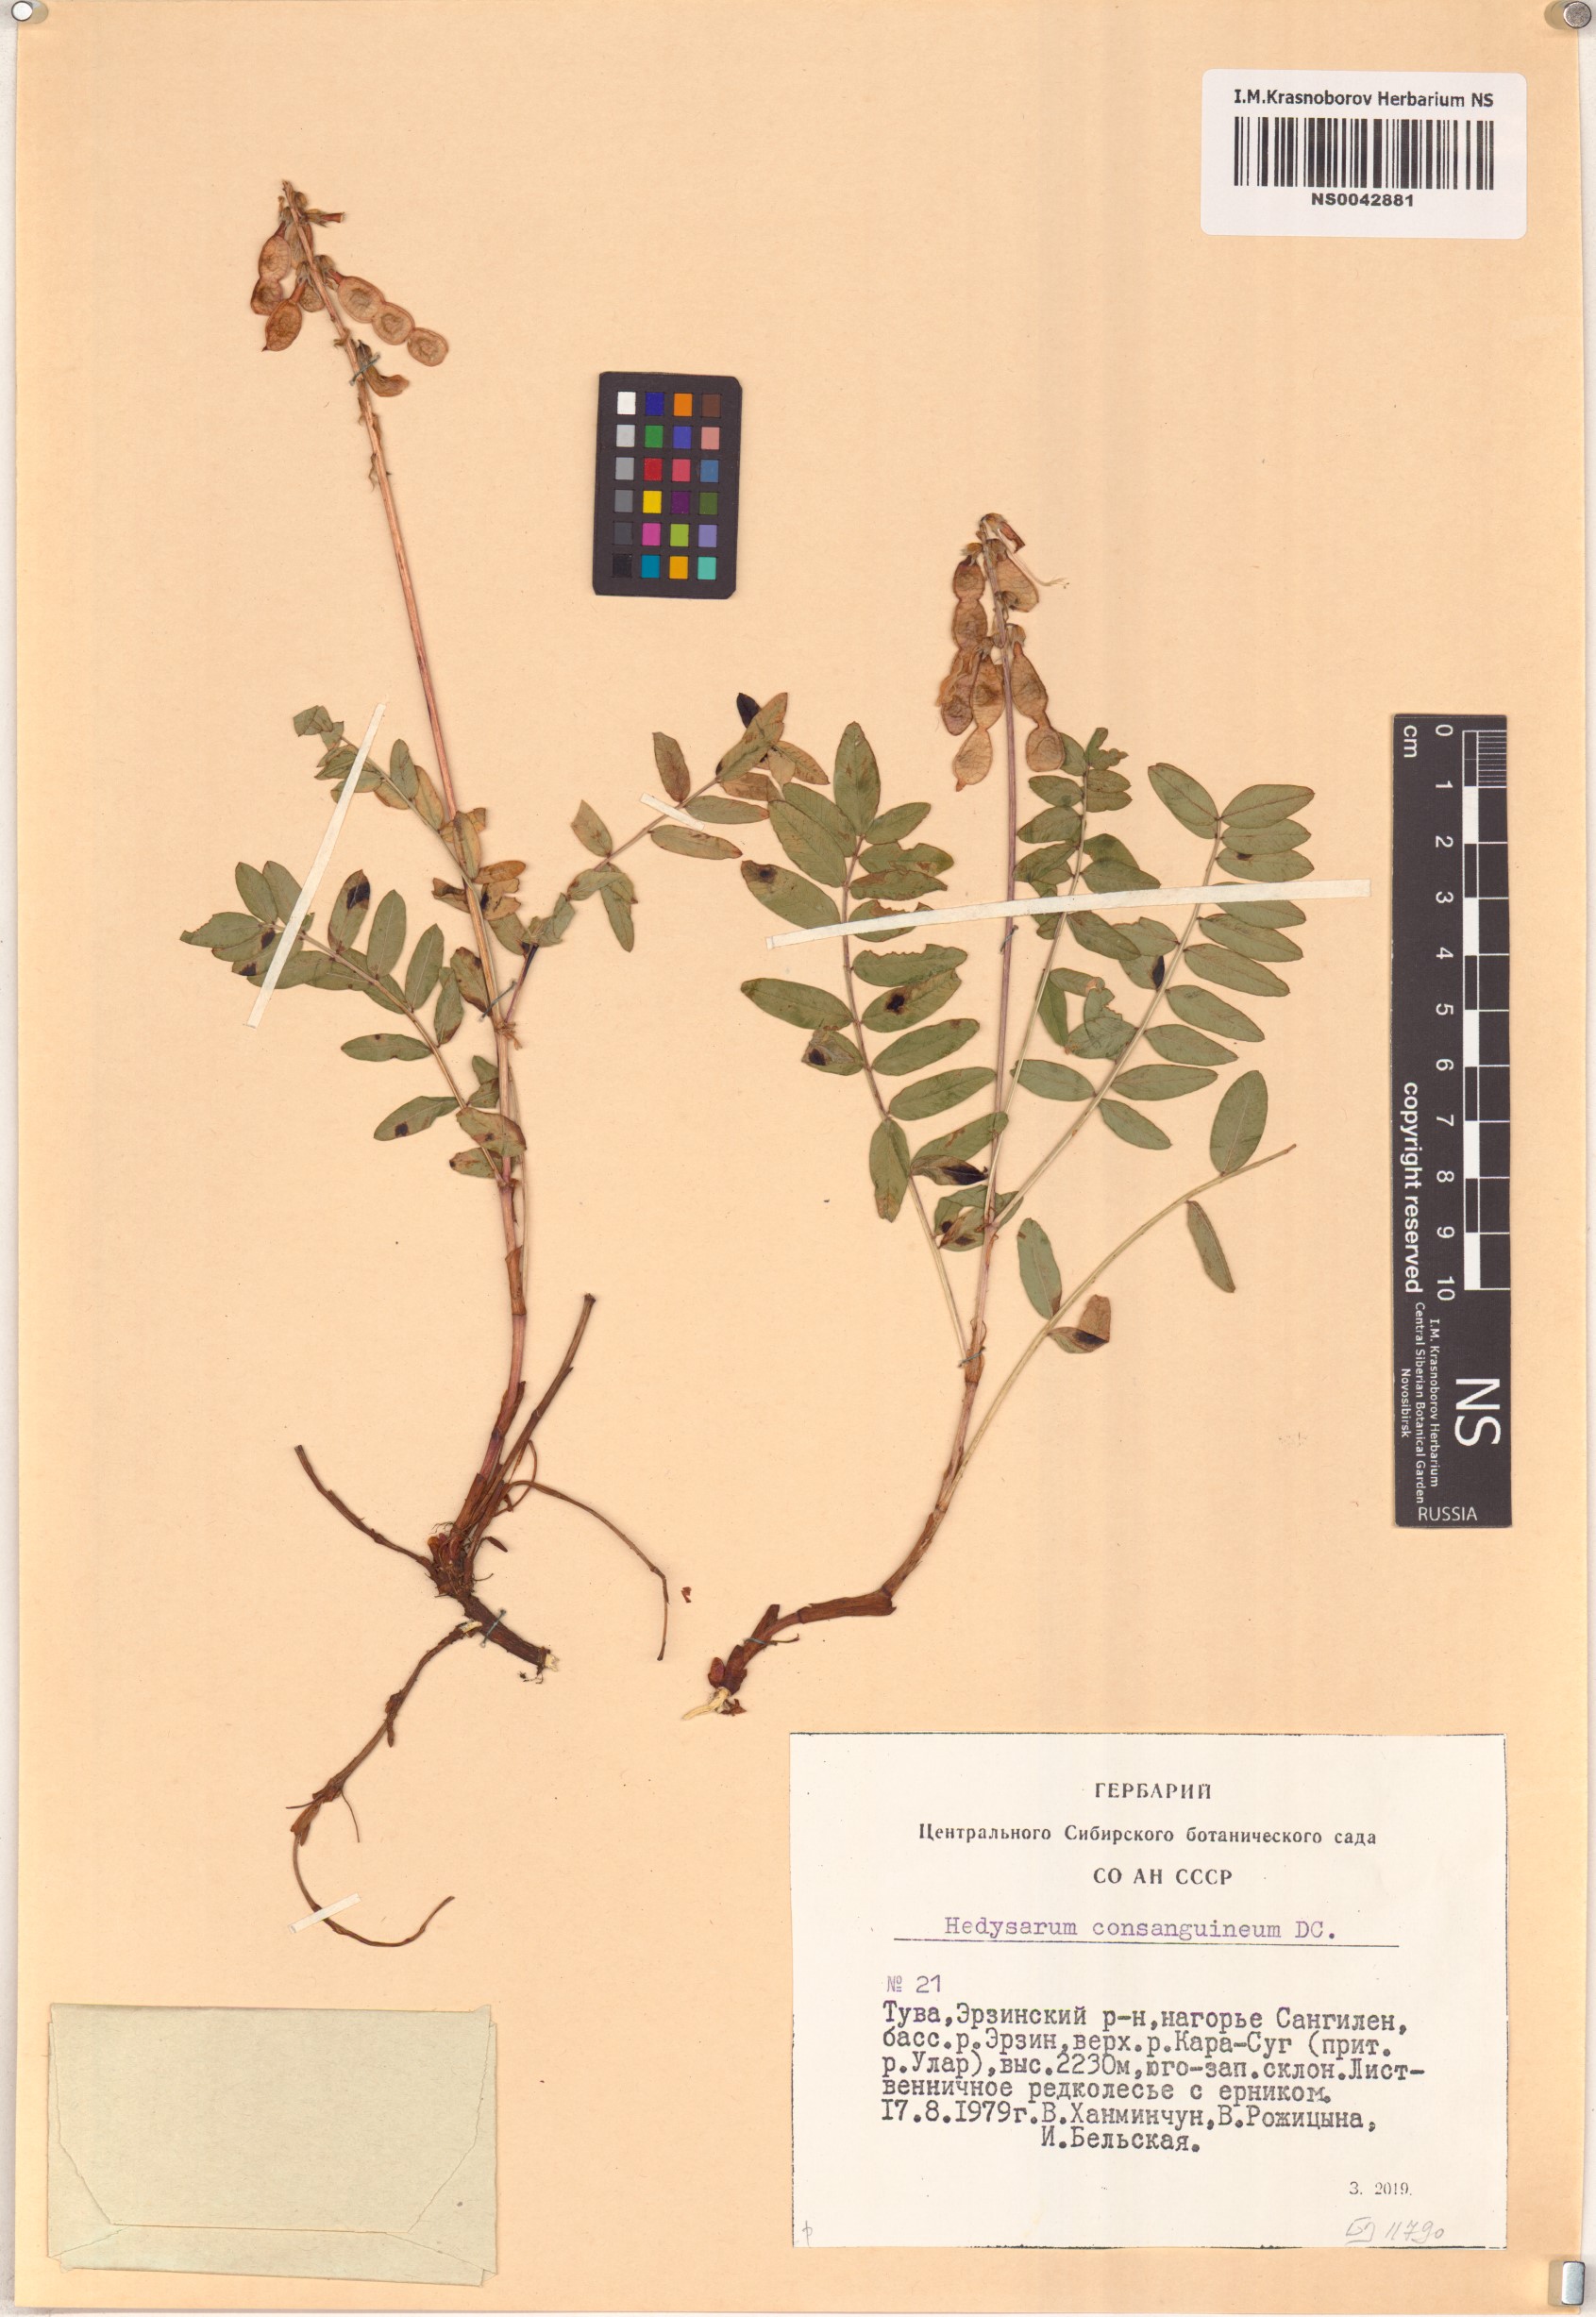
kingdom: Plantae
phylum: Tracheophyta
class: Magnoliopsida
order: Fabales
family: Fabaceae
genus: Hedysarum
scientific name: Hedysarum consanguineum
